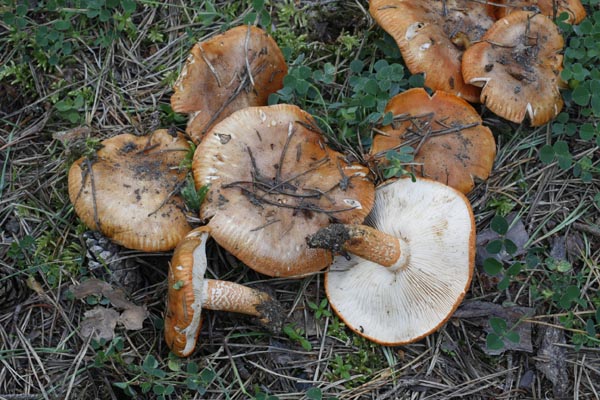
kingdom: Fungi
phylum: Basidiomycota
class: Agaricomycetes
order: Agaricales
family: Tricholomataceae
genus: Tricholoma
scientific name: Tricholoma aurantium
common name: orangegul ridderhat
